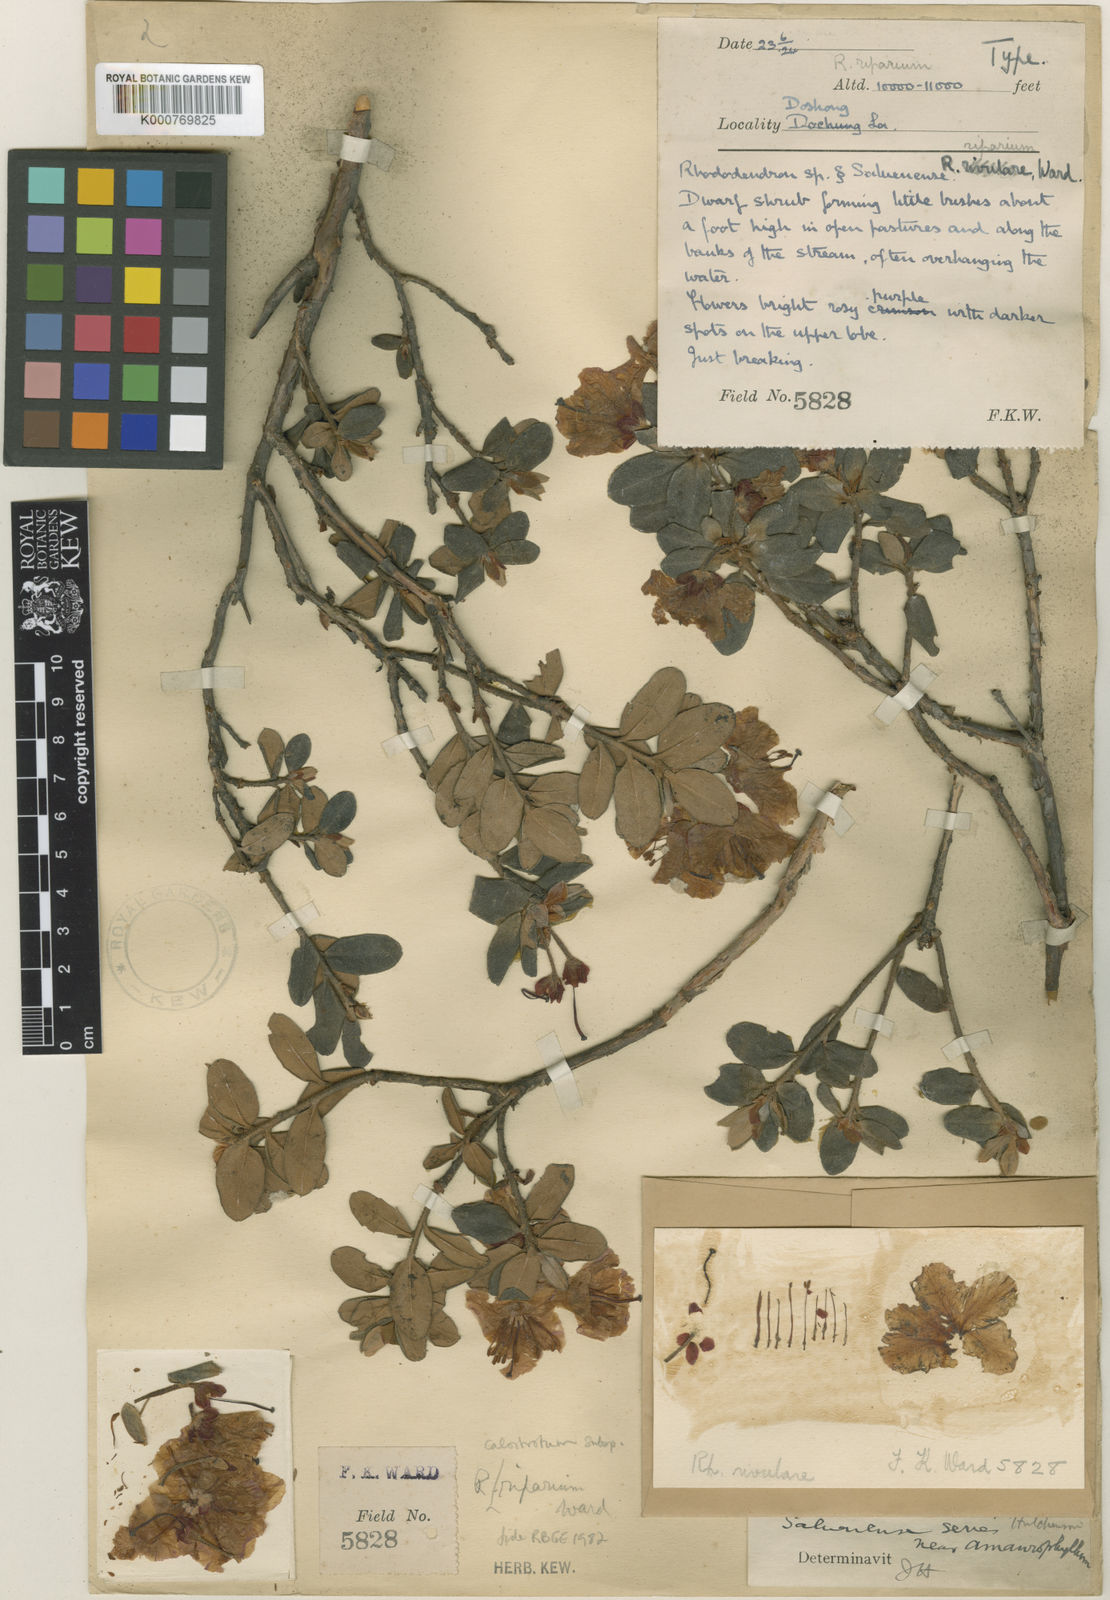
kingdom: Plantae
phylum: Tracheophyta
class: Magnoliopsida
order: Ericales
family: Ericaceae
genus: Rhododendron
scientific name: Rhododendron calostrotum
